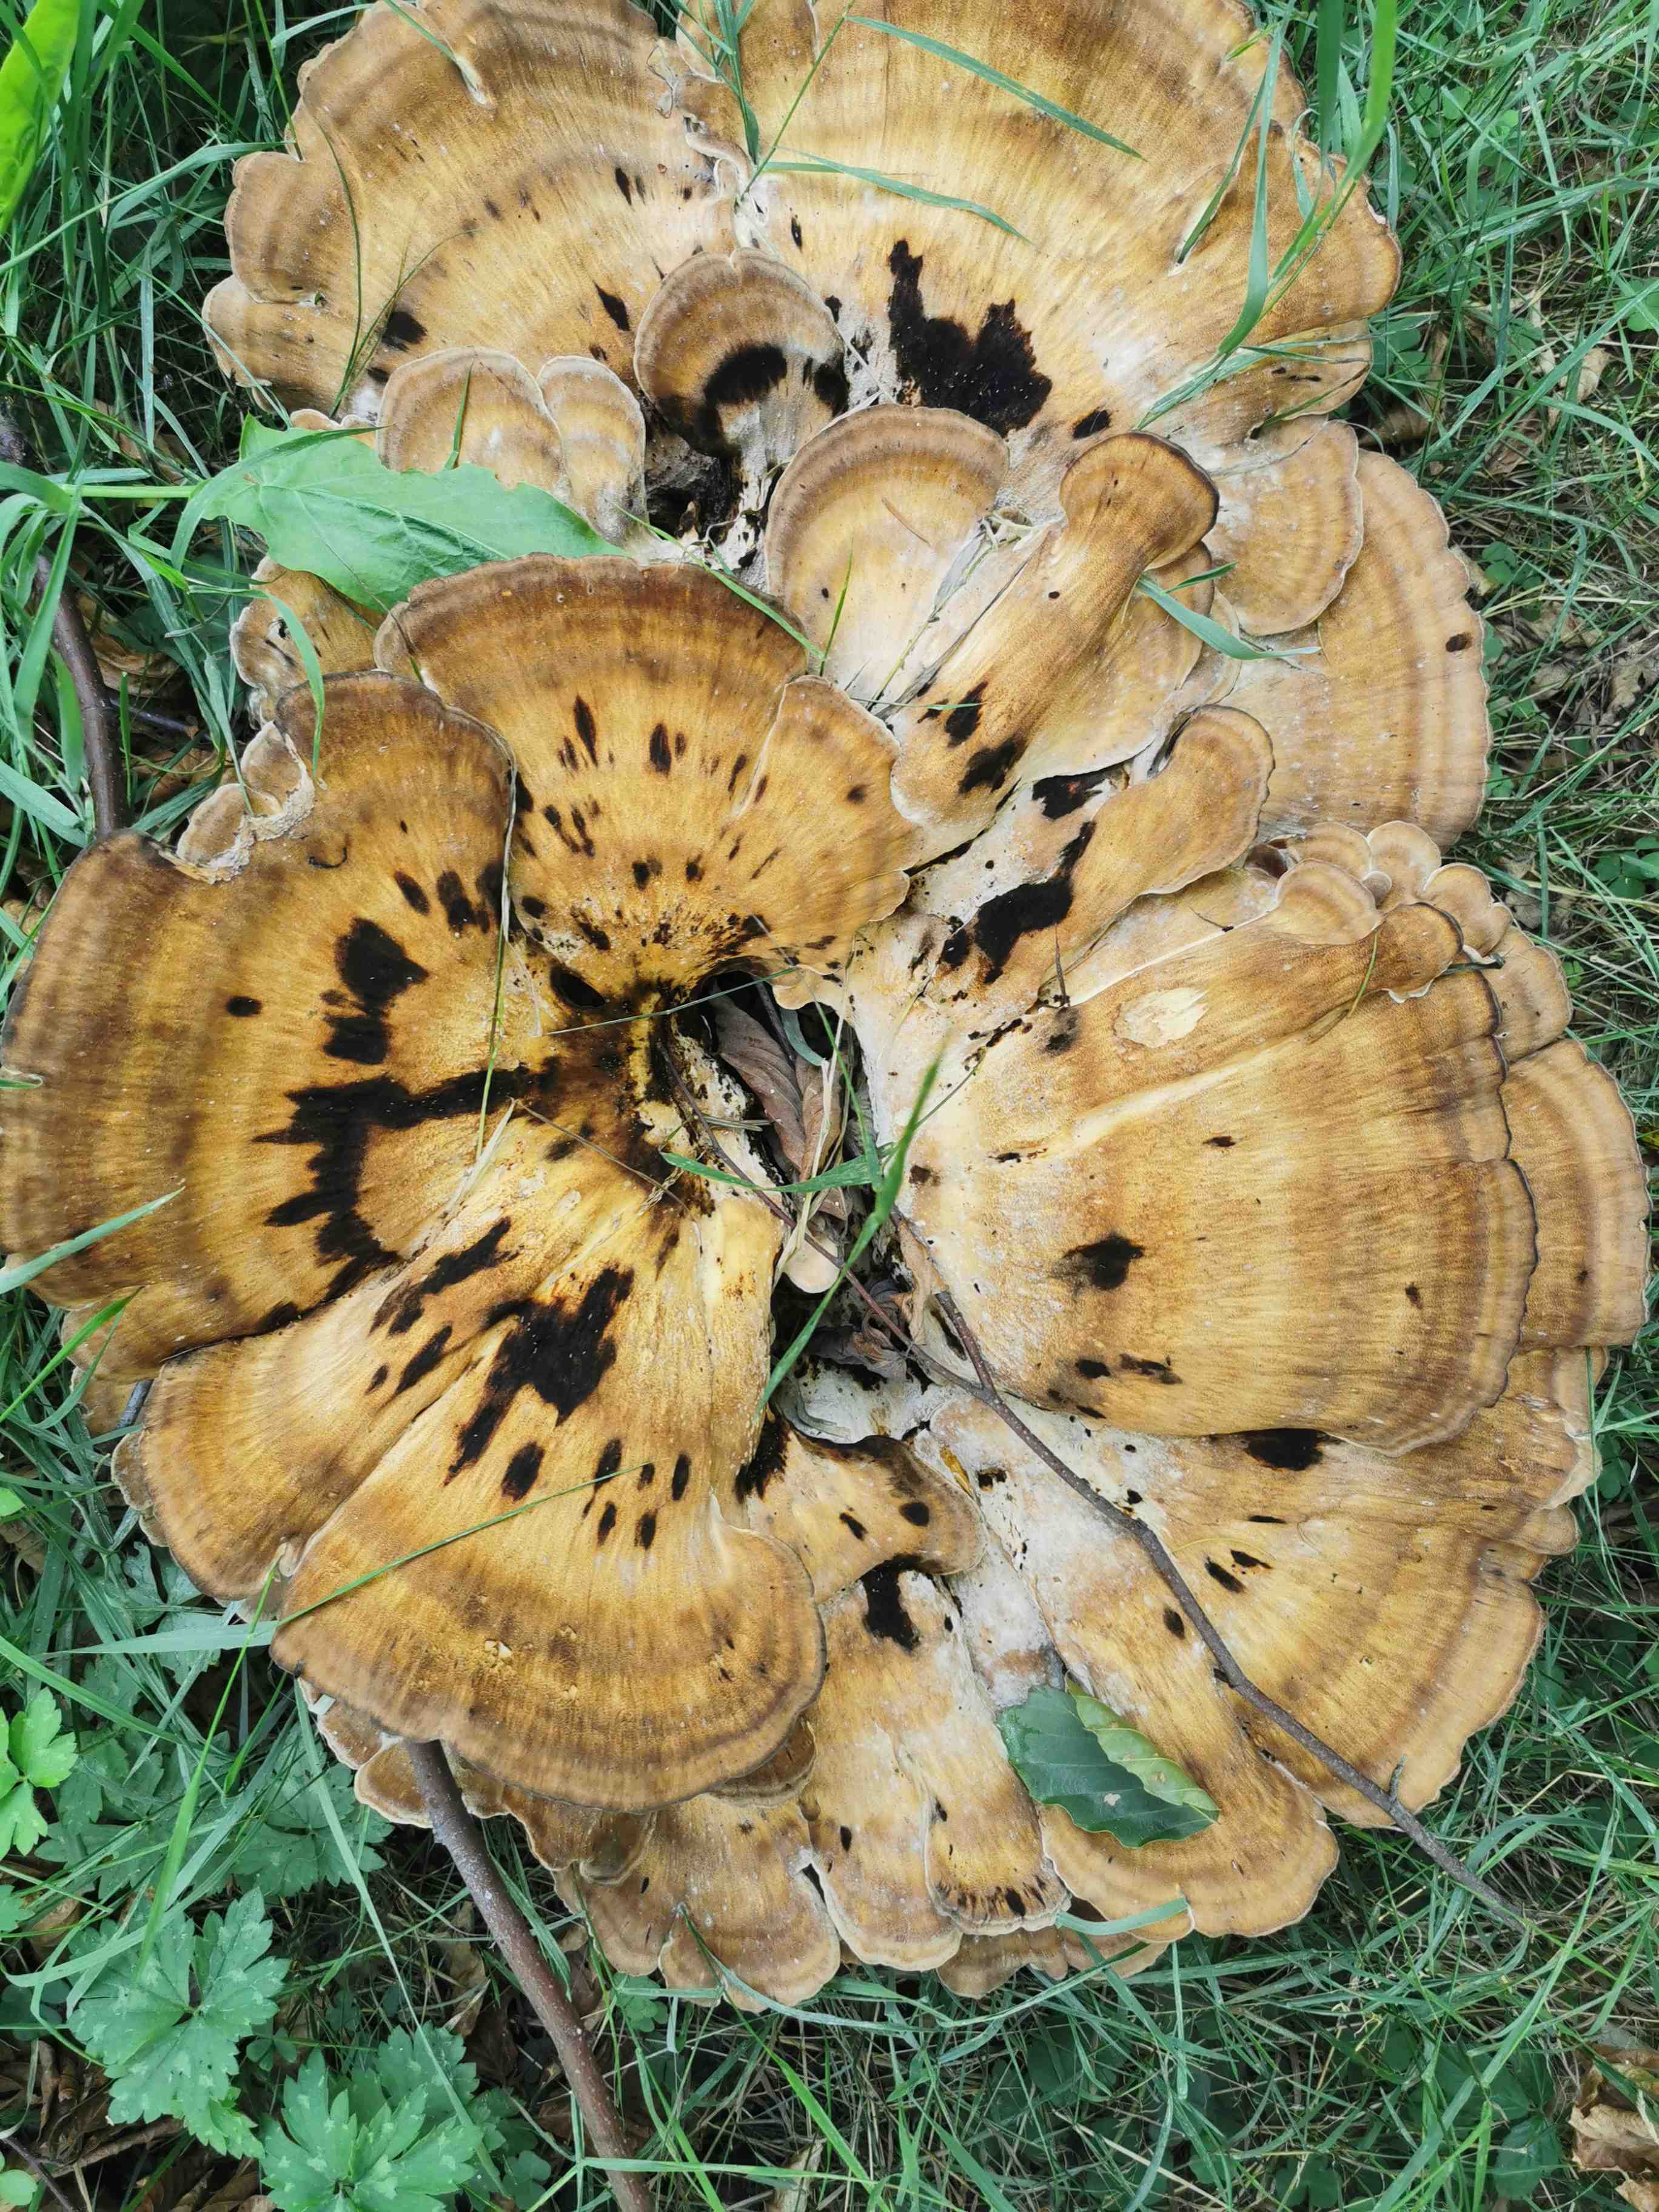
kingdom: Fungi
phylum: Basidiomycota
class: Agaricomycetes
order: Polyporales
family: Meripilaceae
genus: Meripilus
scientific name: Meripilus giganteus
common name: kæmpeporesvamp
